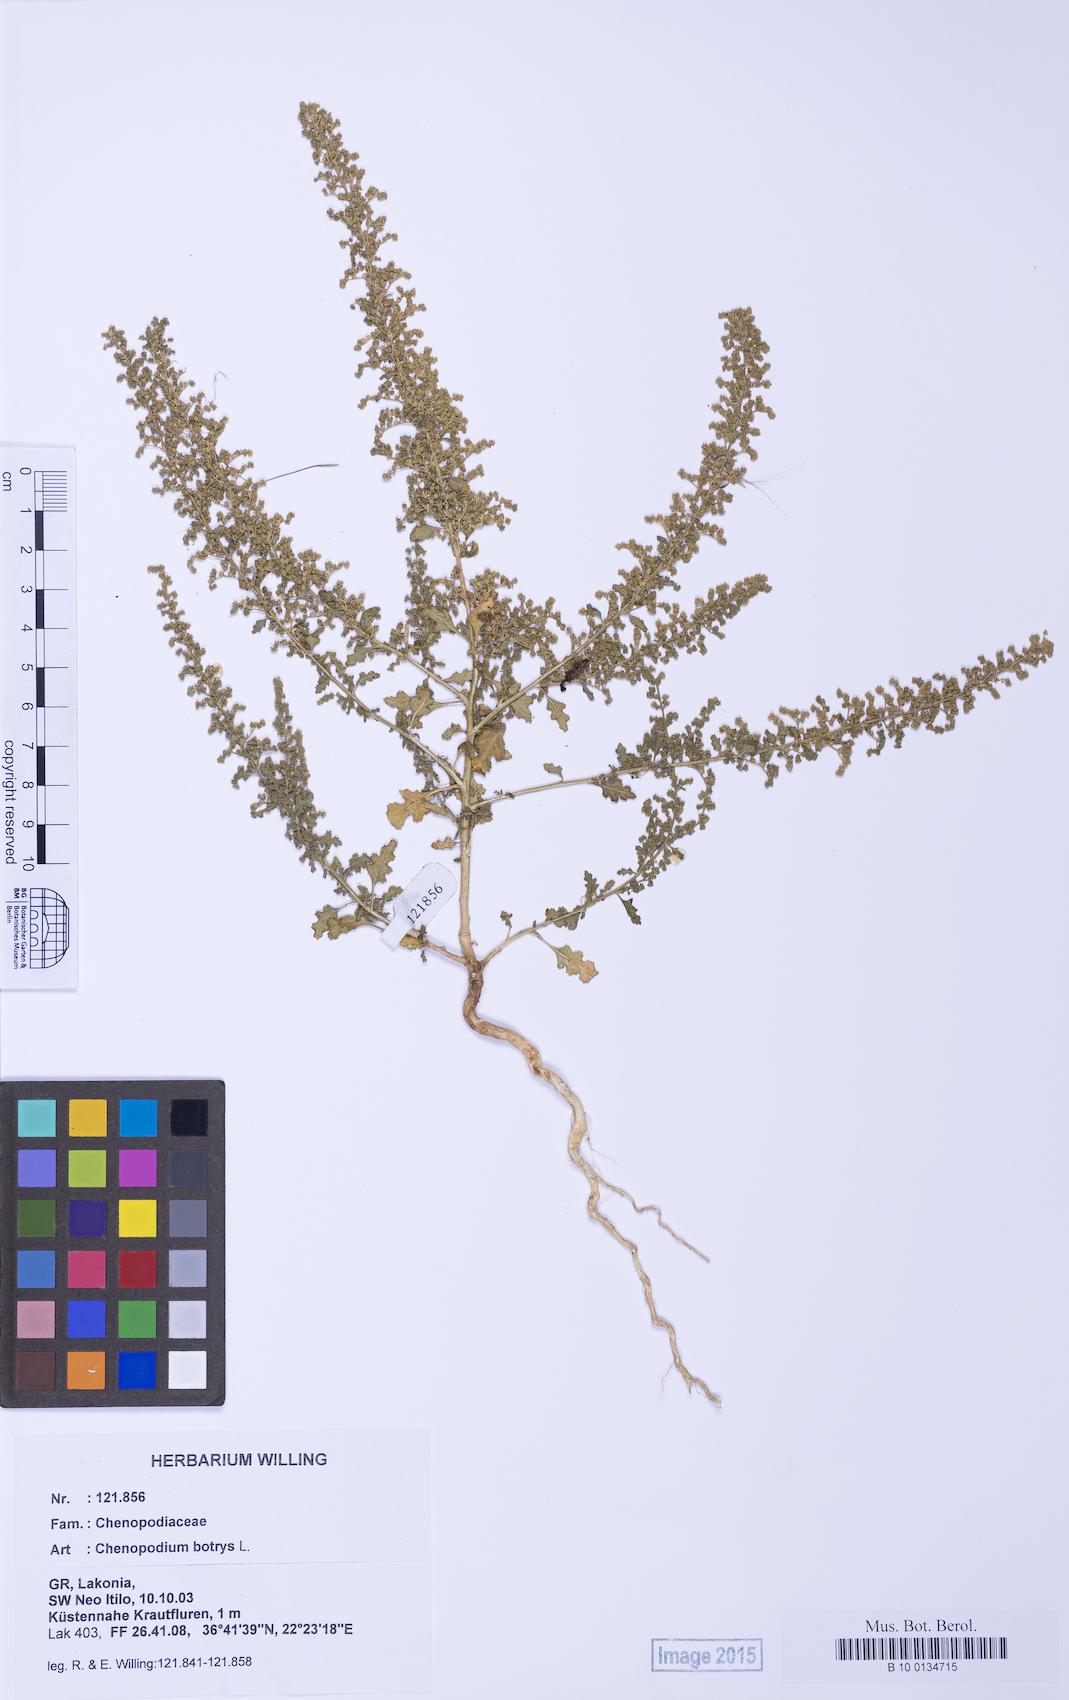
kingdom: Plantae
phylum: Tracheophyta
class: Magnoliopsida
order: Caryophyllales
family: Amaranthaceae
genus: Dysphania
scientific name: Dysphania botrys
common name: Feather-geranium
